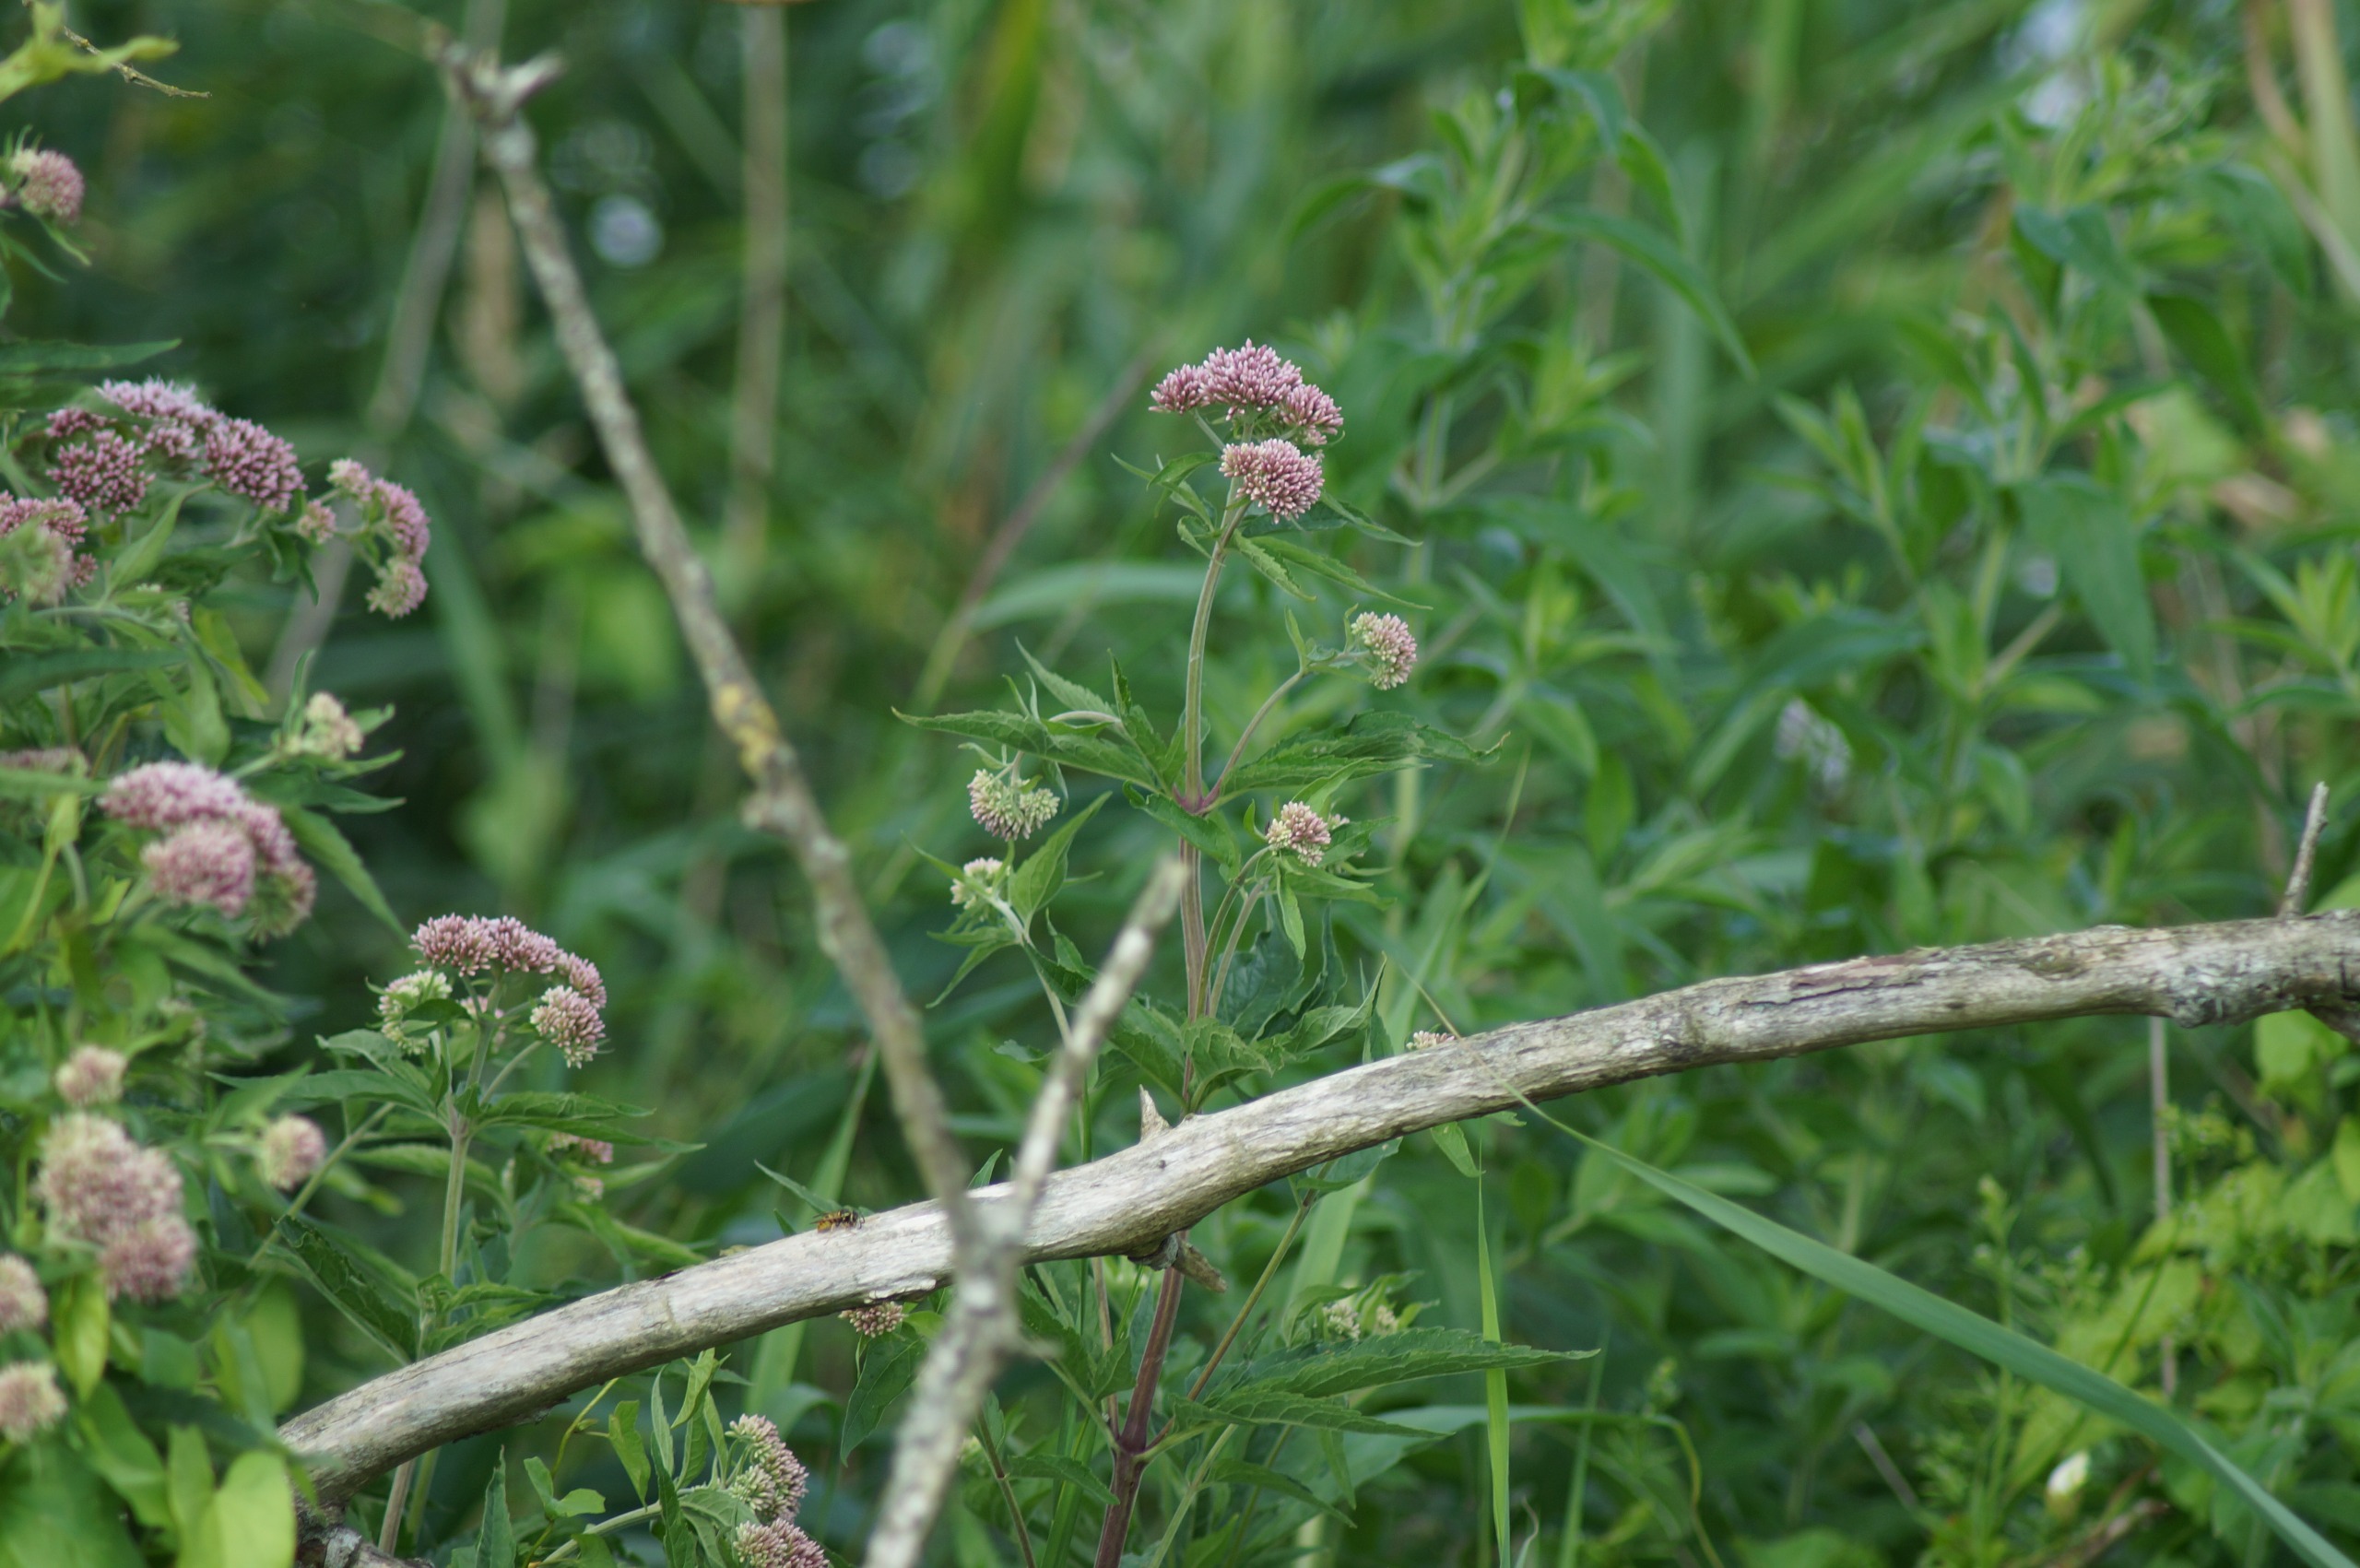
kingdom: Plantae
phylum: Tracheophyta
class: Magnoliopsida
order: Asterales
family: Asteraceae
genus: Eupatorium
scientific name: Eupatorium cannabinum
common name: Hjortetrøst
